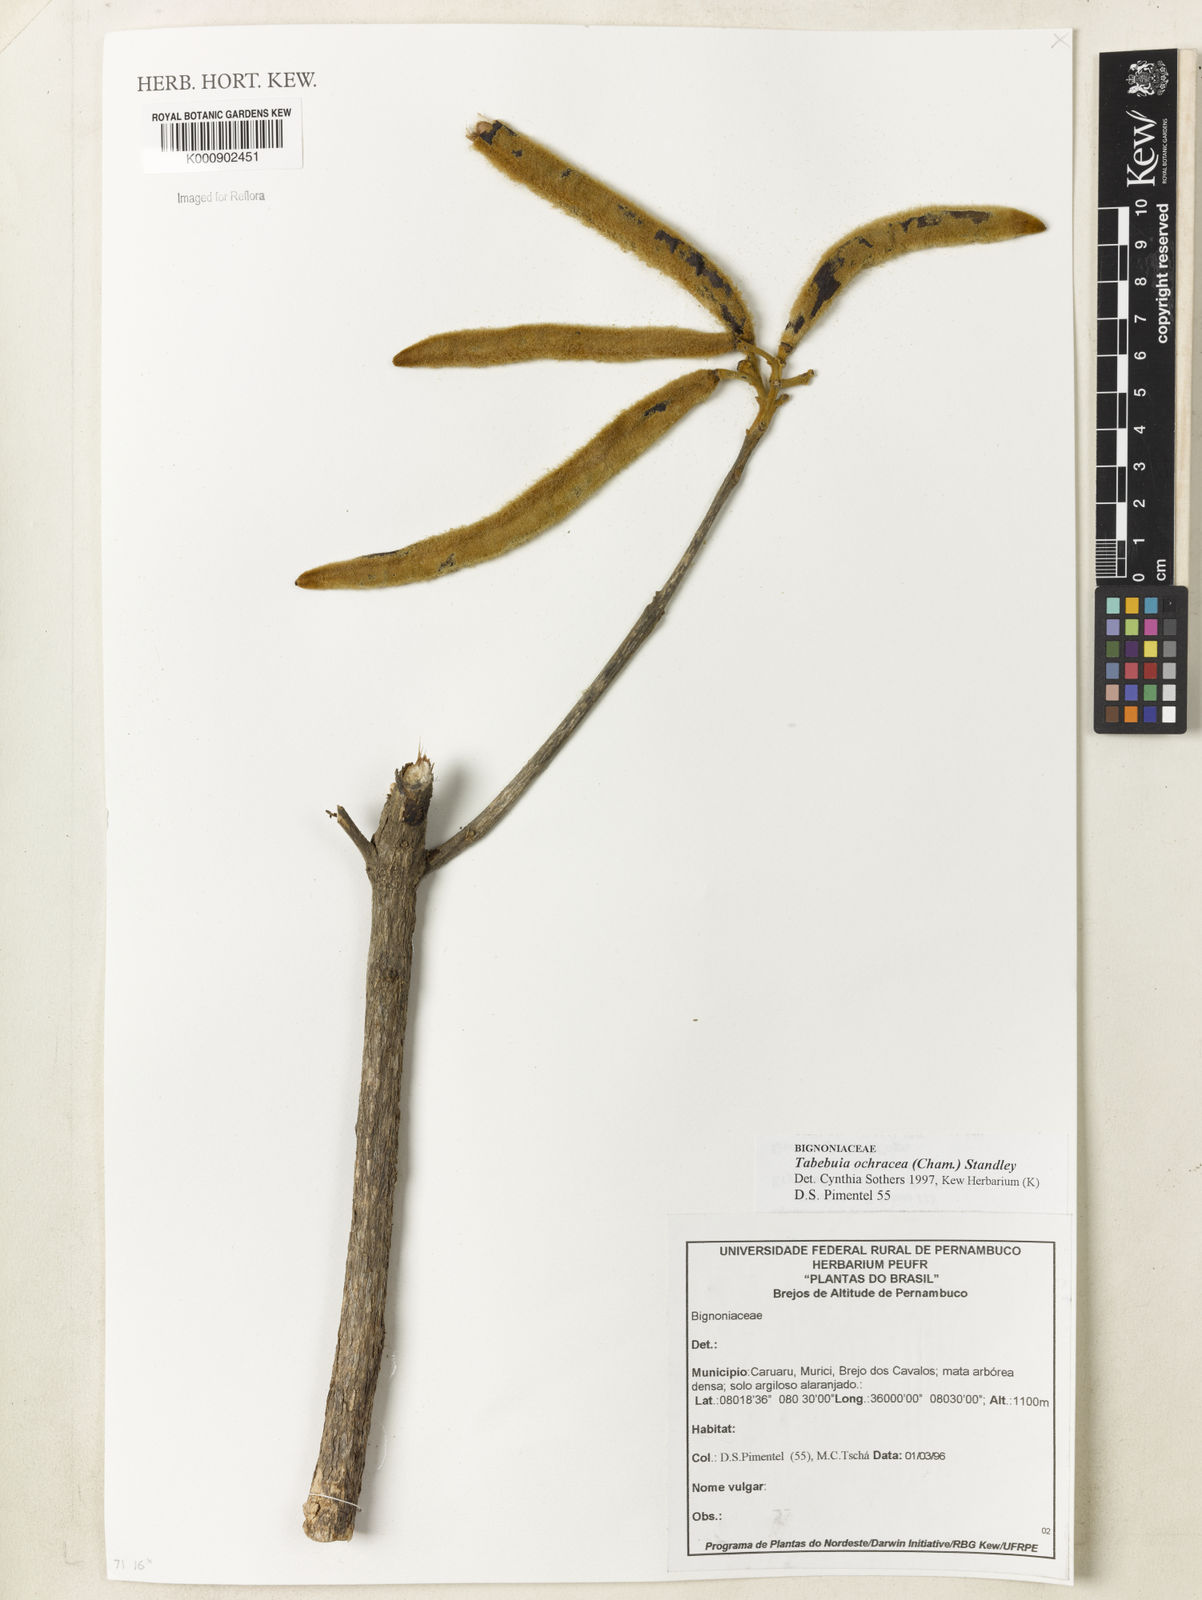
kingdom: Plantae
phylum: Tracheophyta
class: Magnoliopsida
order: Lamiales
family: Bignoniaceae
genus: Handroanthus
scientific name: Handroanthus ochraceus
